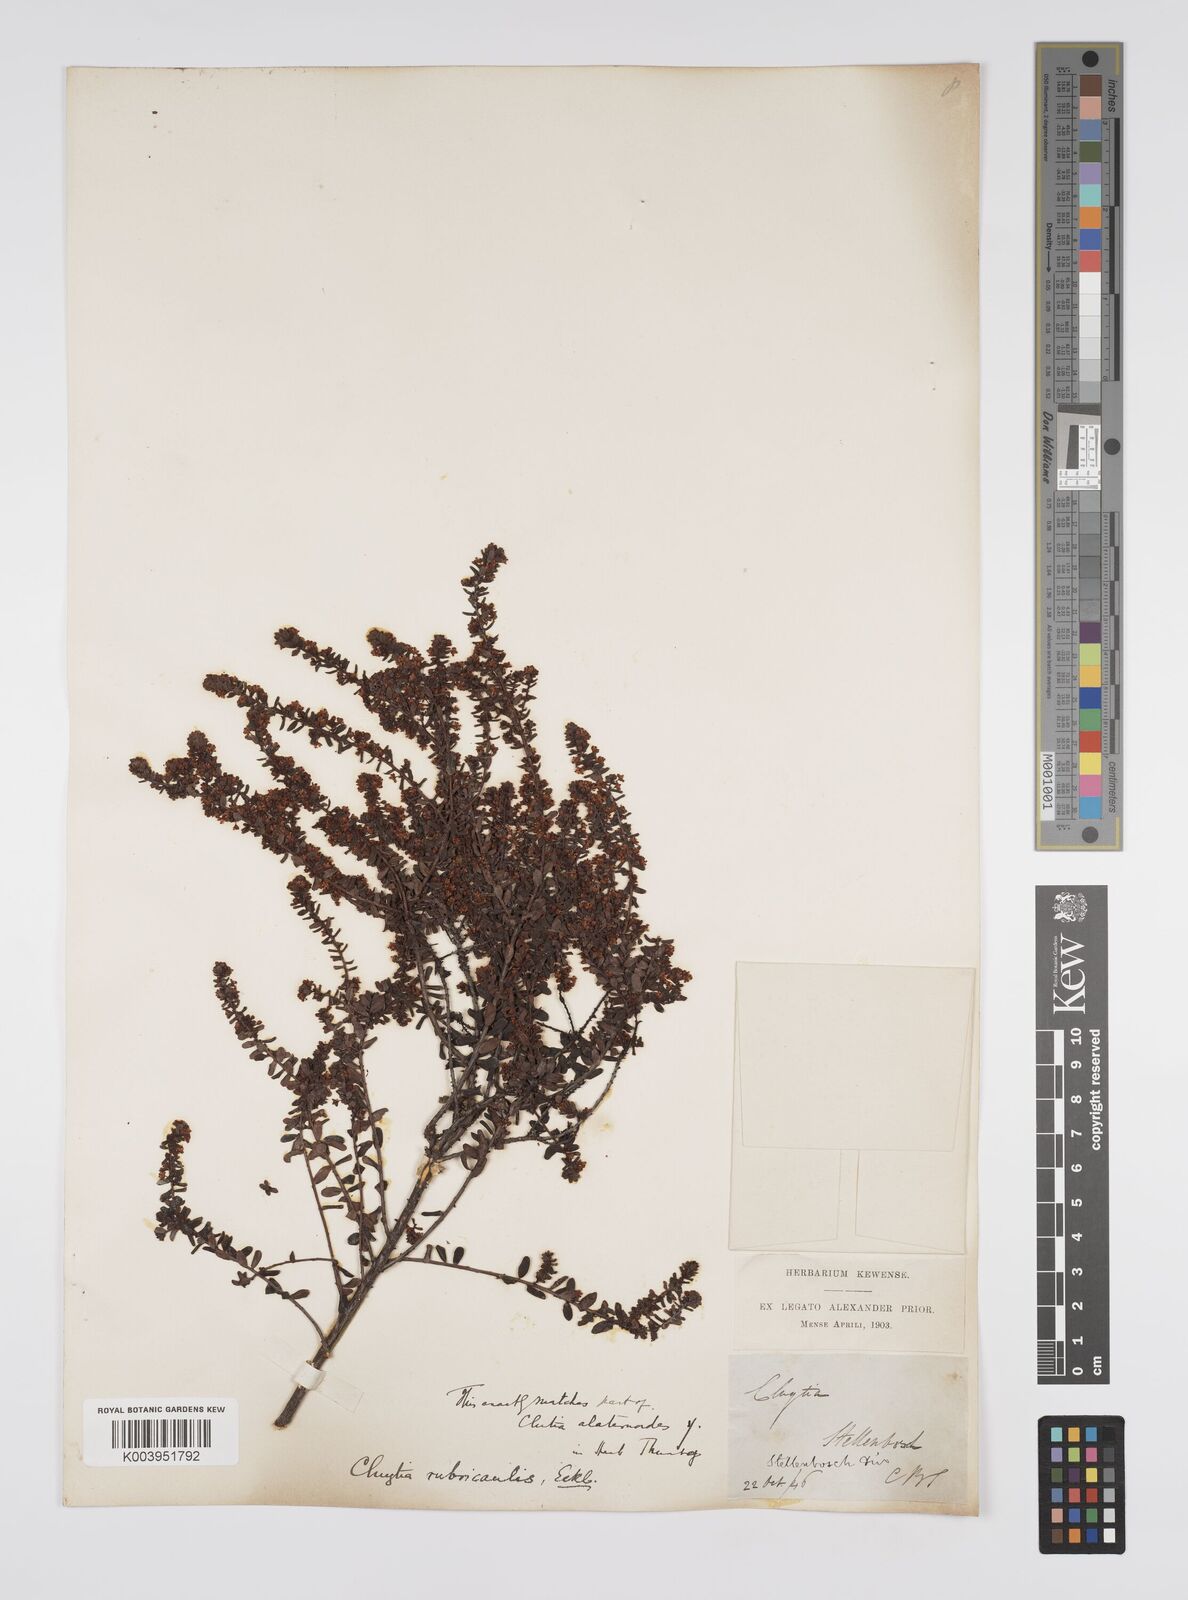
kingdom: Plantae
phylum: Tracheophyta
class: Magnoliopsida
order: Malpighiales
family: Peraceae
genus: Clutia
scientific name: Clutia rubricaulis
